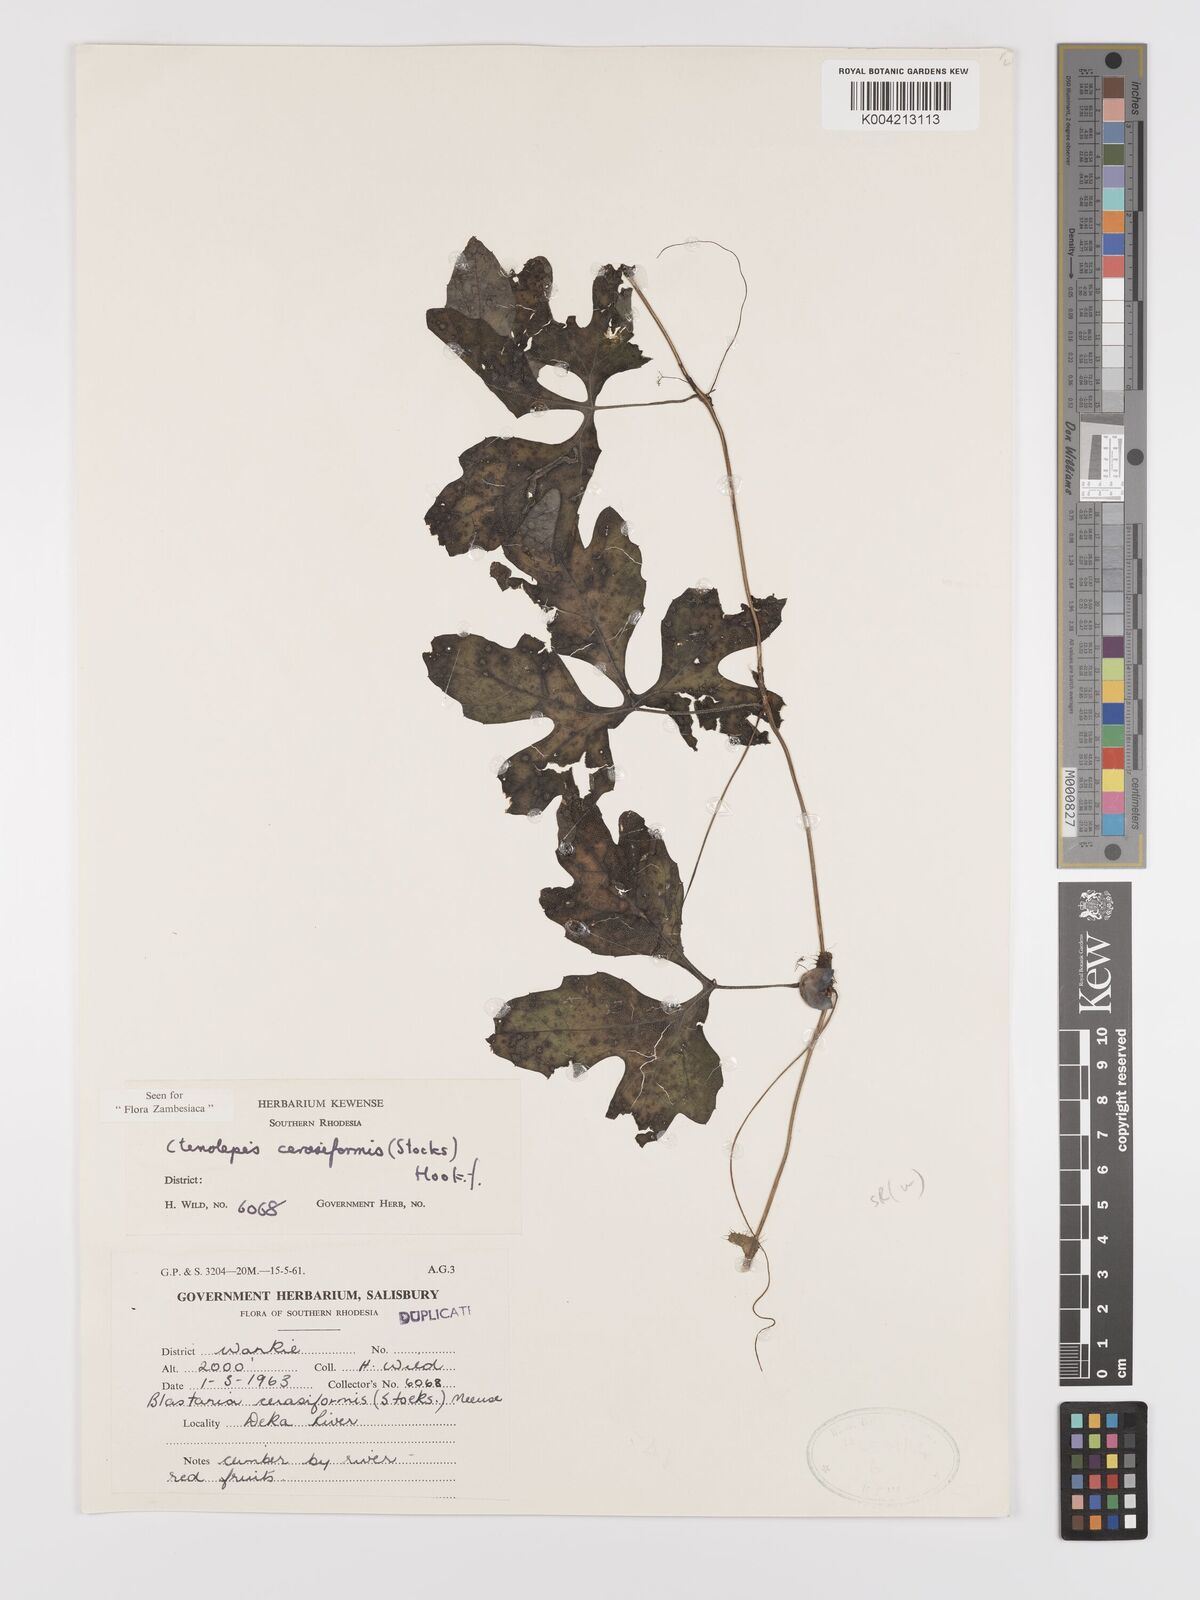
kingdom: Plantae
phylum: Tracheophyta
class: Magnoliopsida
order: Cucurbitales
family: Cucurbitaceae
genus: Blastania
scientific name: Blastania cerasiformis
